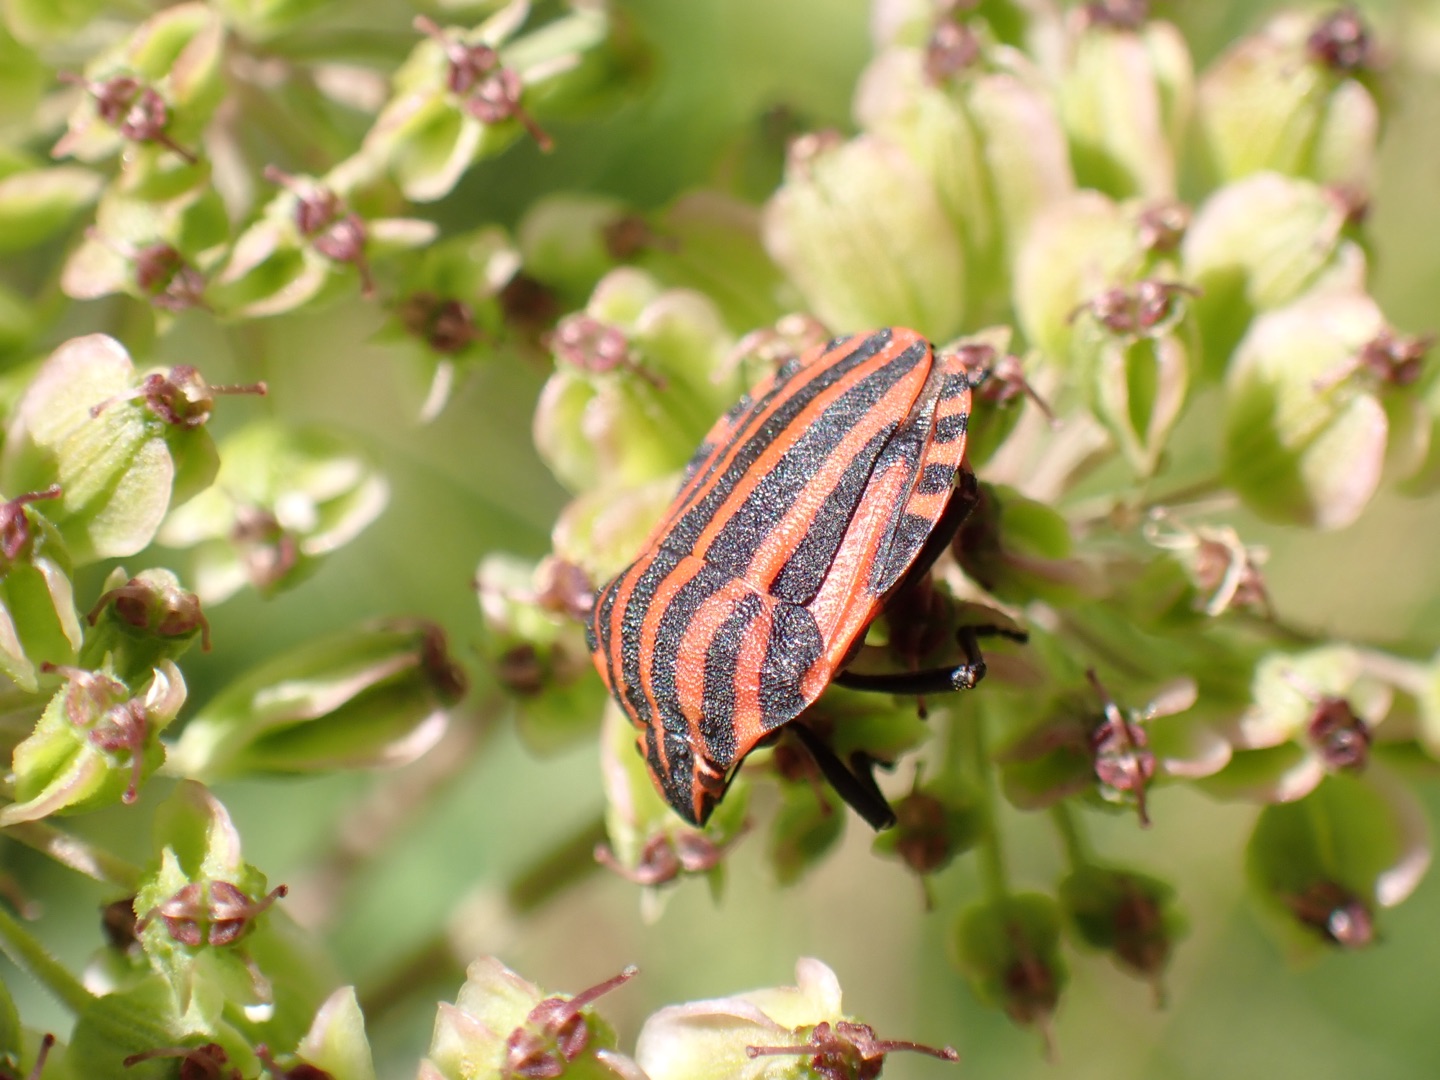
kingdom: Animalia
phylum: Arthropoda
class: Insecta
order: Hemiptera
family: Pentatomidae
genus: Graphosoma
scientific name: Graphosoma italicum
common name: Stribetæge
